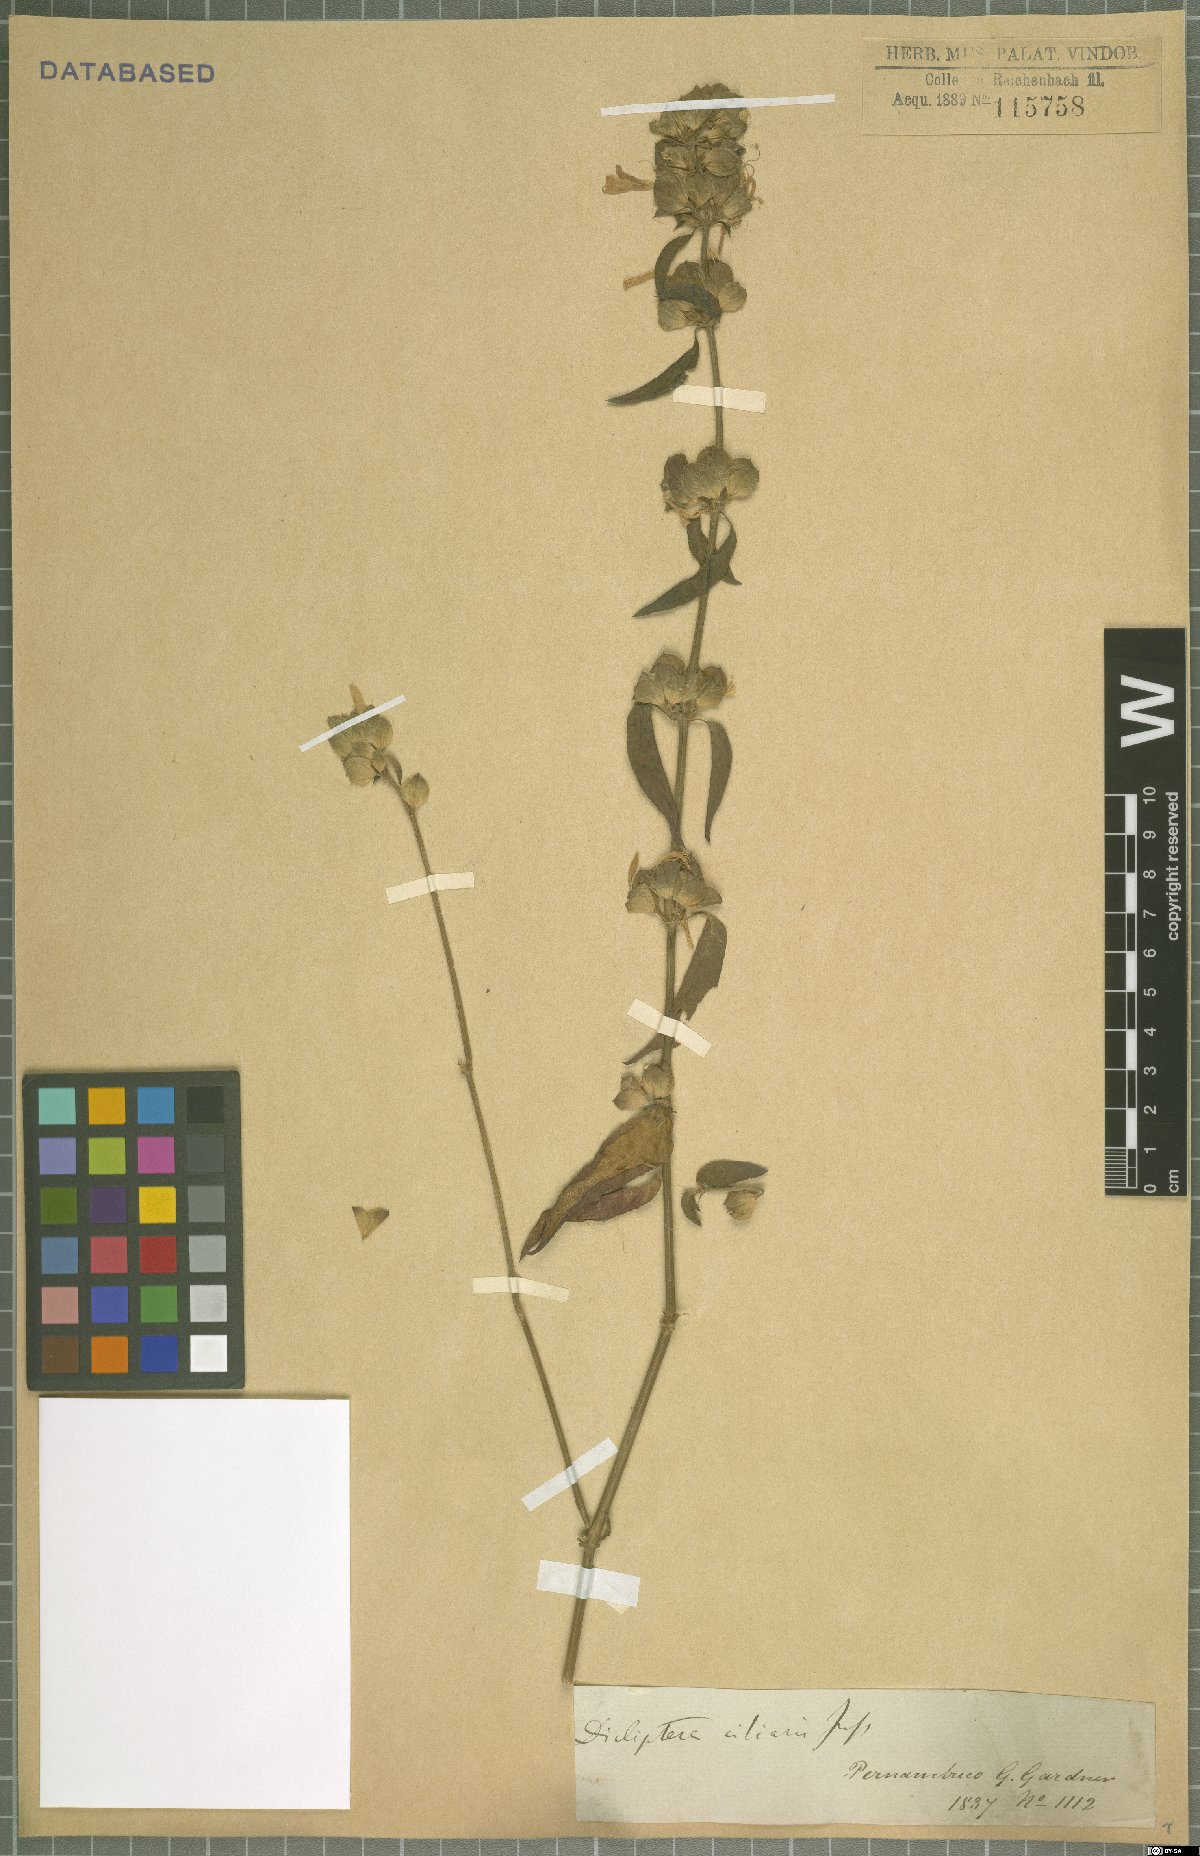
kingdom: Plantae
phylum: Tracheophyta
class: Magnoliopsida
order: Lamiales
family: Acanthaceae
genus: Dicliptera
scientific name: Dicliptera ciliaris
